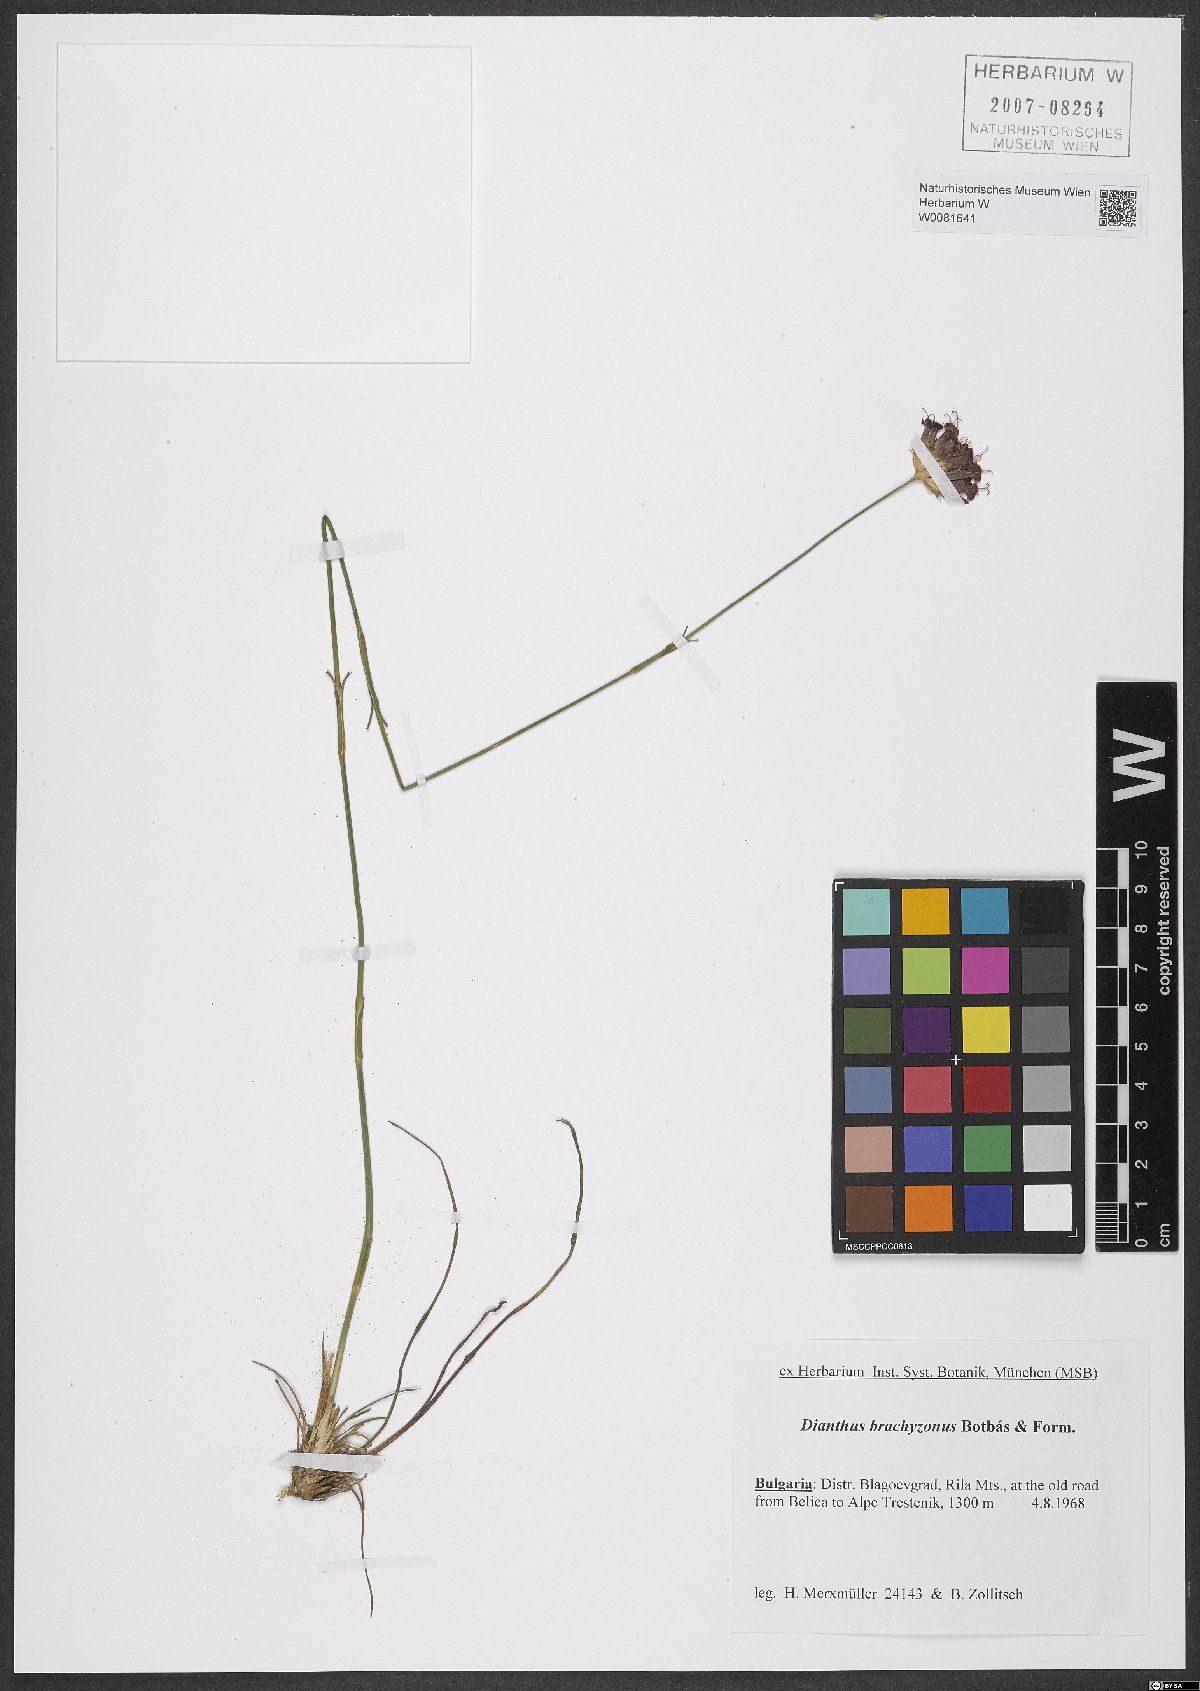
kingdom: Plantae
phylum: Tracheophyta
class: Magnoliopsida
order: Caryophyllales
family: Caryophyllaceae
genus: Dianthus
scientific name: Dianthus cruentus
